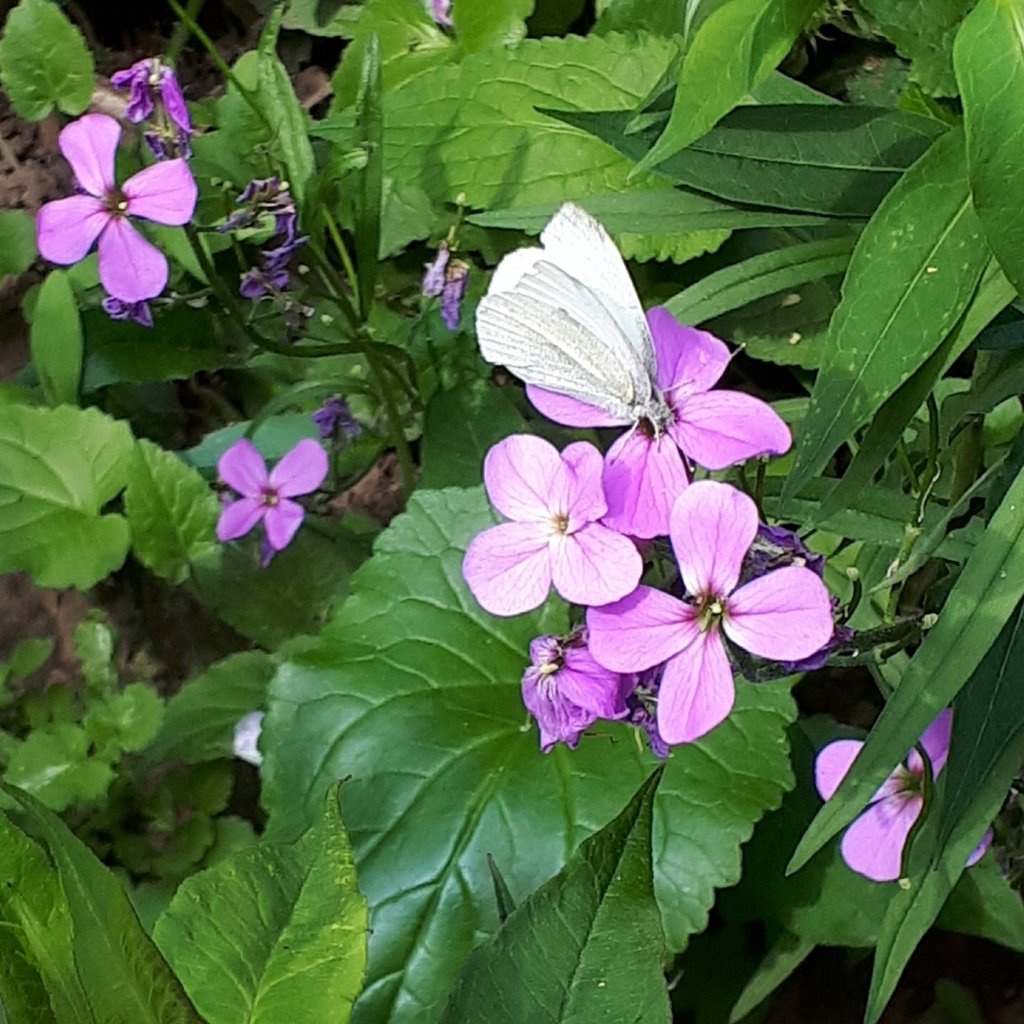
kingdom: Animalia
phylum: Arthropoda
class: Insecta
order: Lepidoptera
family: Pieridae
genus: Pieris
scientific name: Pieris rapae
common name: Cabbage White
